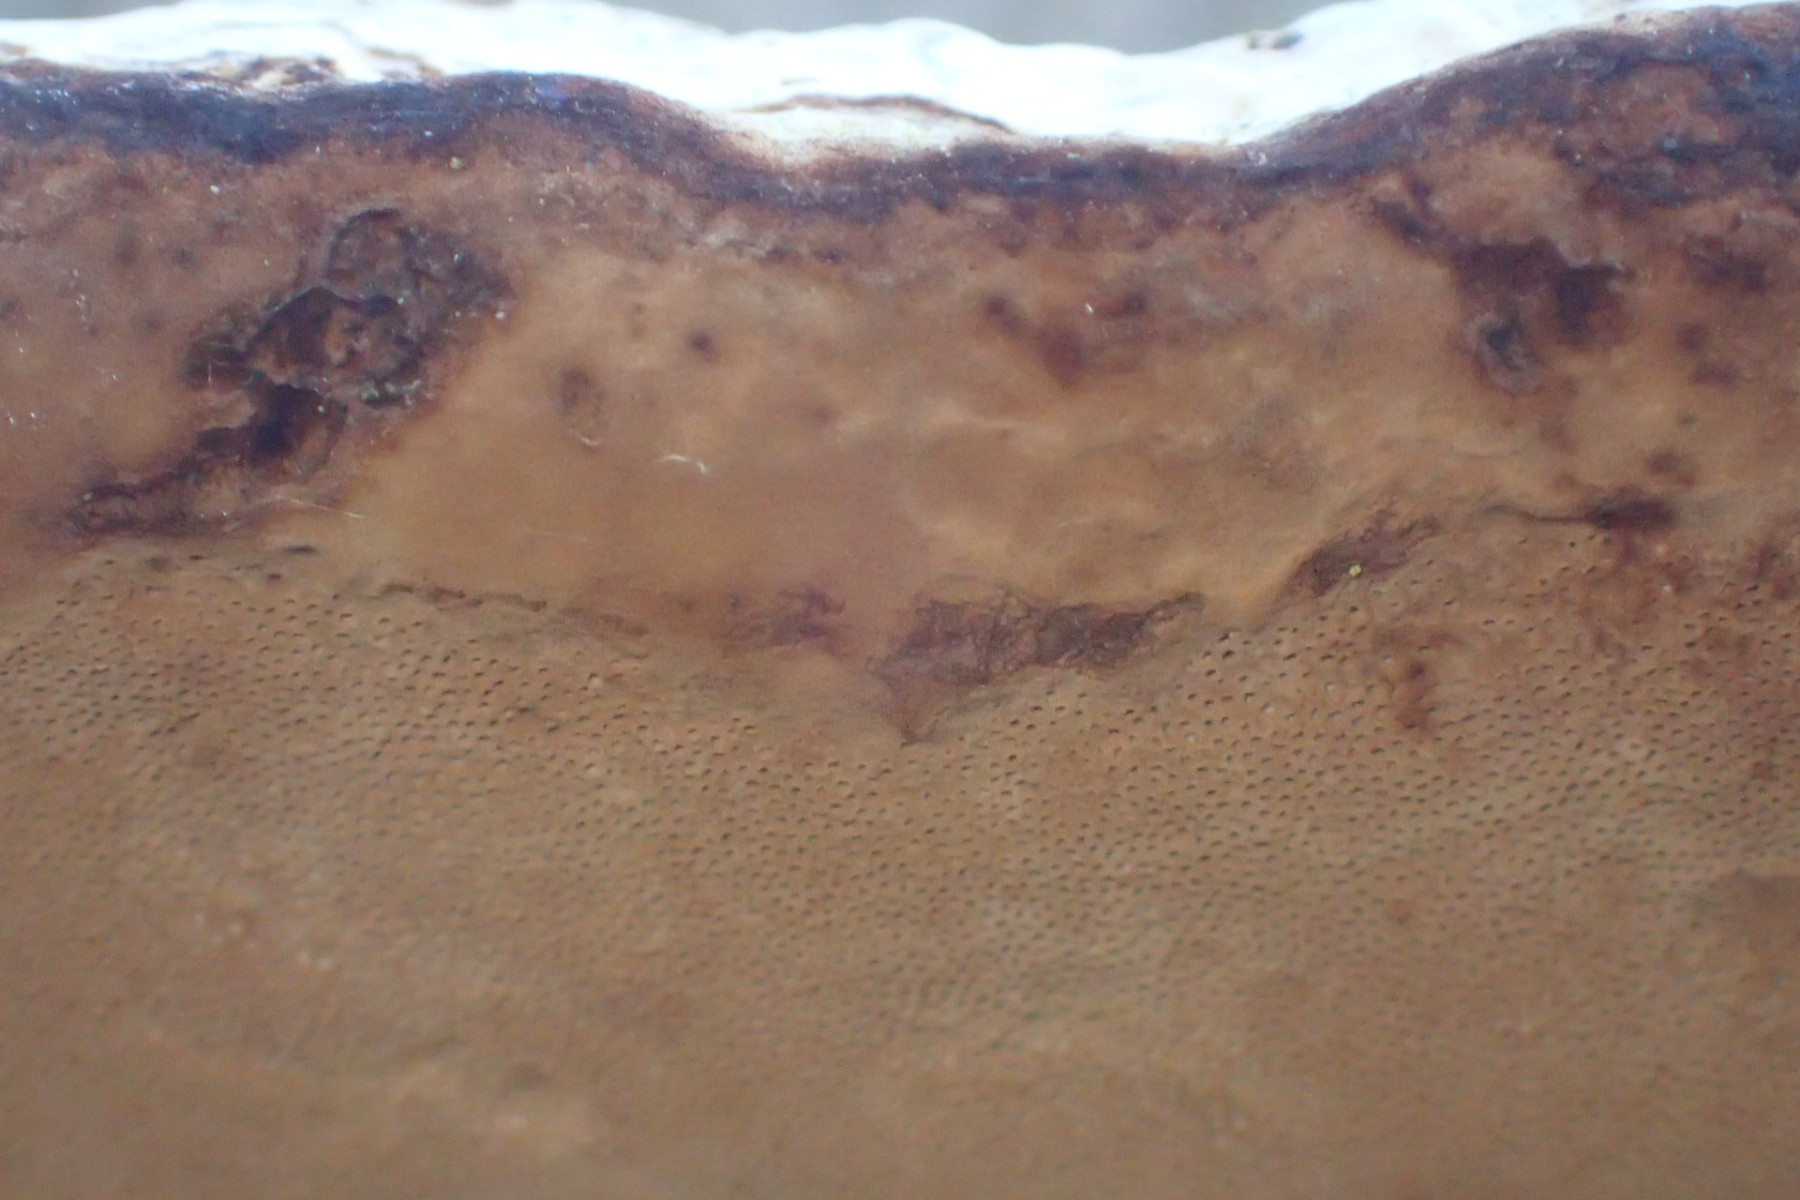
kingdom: Fungi
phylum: Basidiomycota
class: Agaricomycetes
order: Polyporales
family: Polyporaceae
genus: Fomes
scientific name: Fomes fomentarius
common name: tøndersvamp
